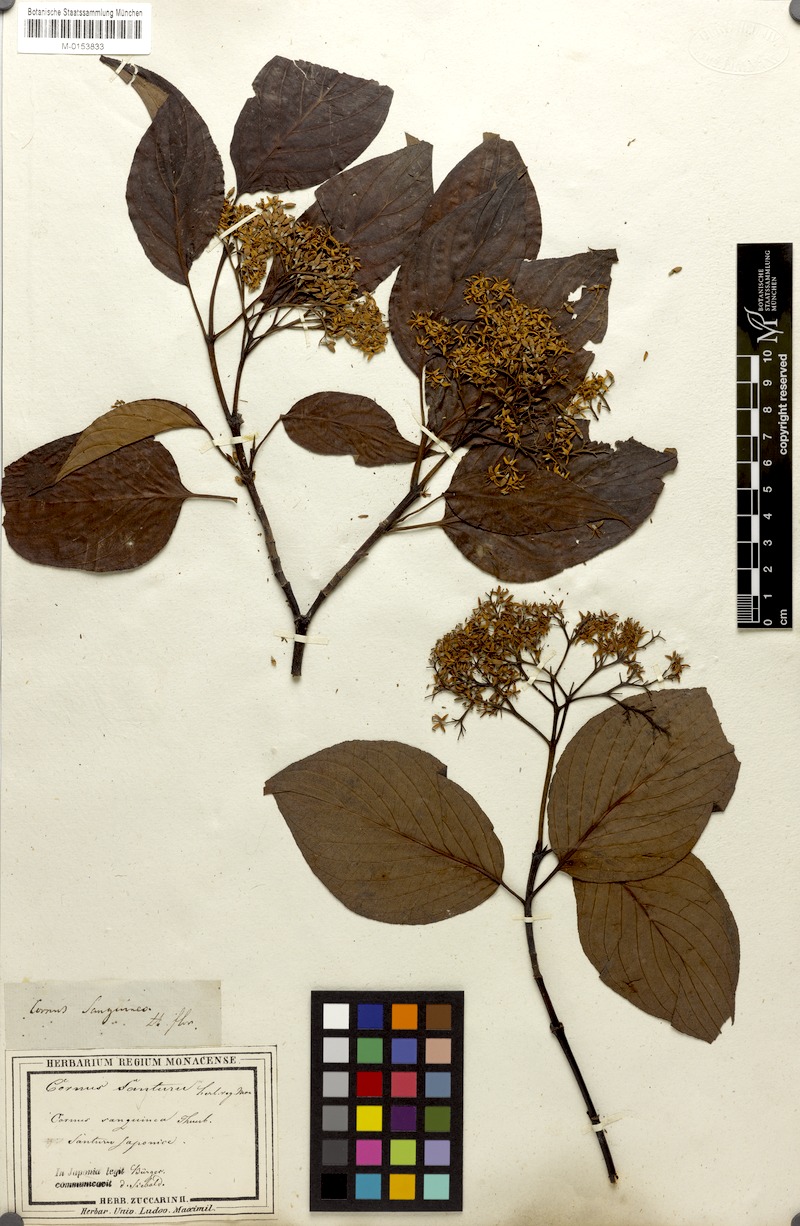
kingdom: Plantae
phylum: Tracheophyta
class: Magnoliopsida
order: Cornales
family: Cornaceae
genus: Cornus
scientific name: Cornus amomum
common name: Silky dogwood
